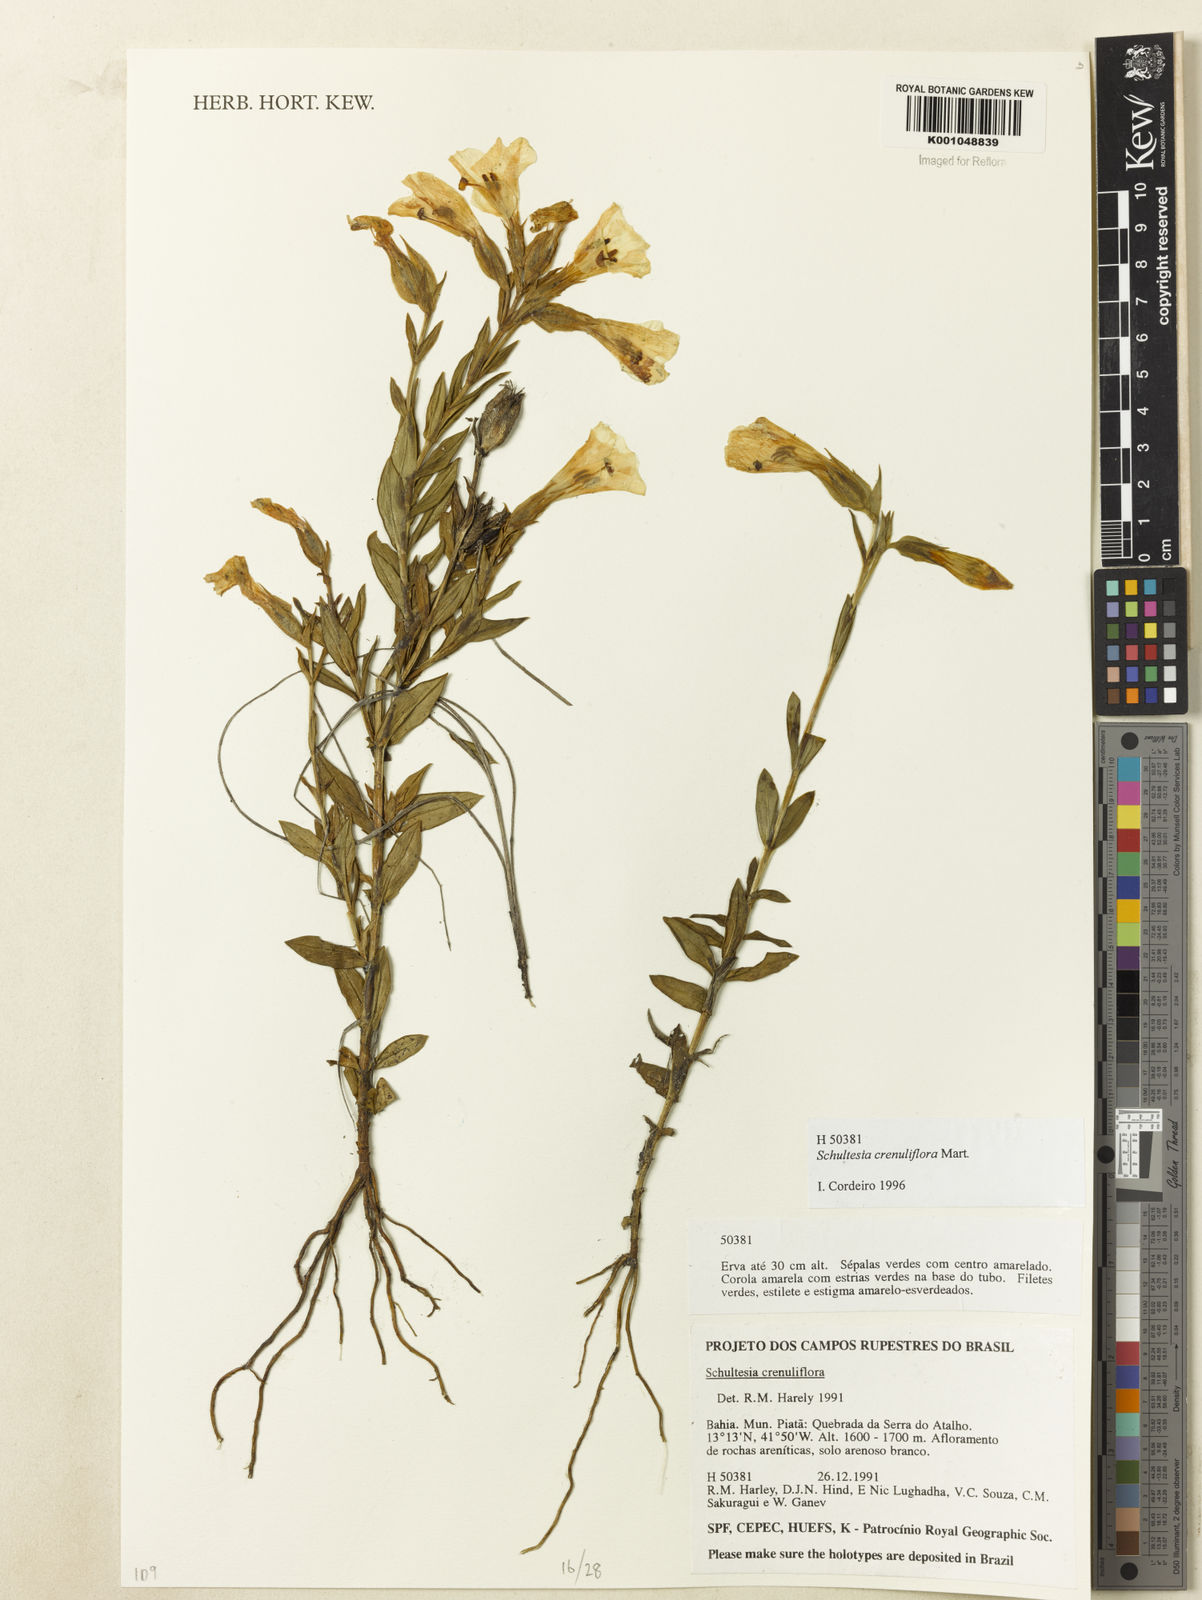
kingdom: Plantae
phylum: Tracheophyta
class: Magnoliopsida
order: Gentianales
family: Gentianaceae
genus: Schultesia
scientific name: Schultesia crenuliflora
